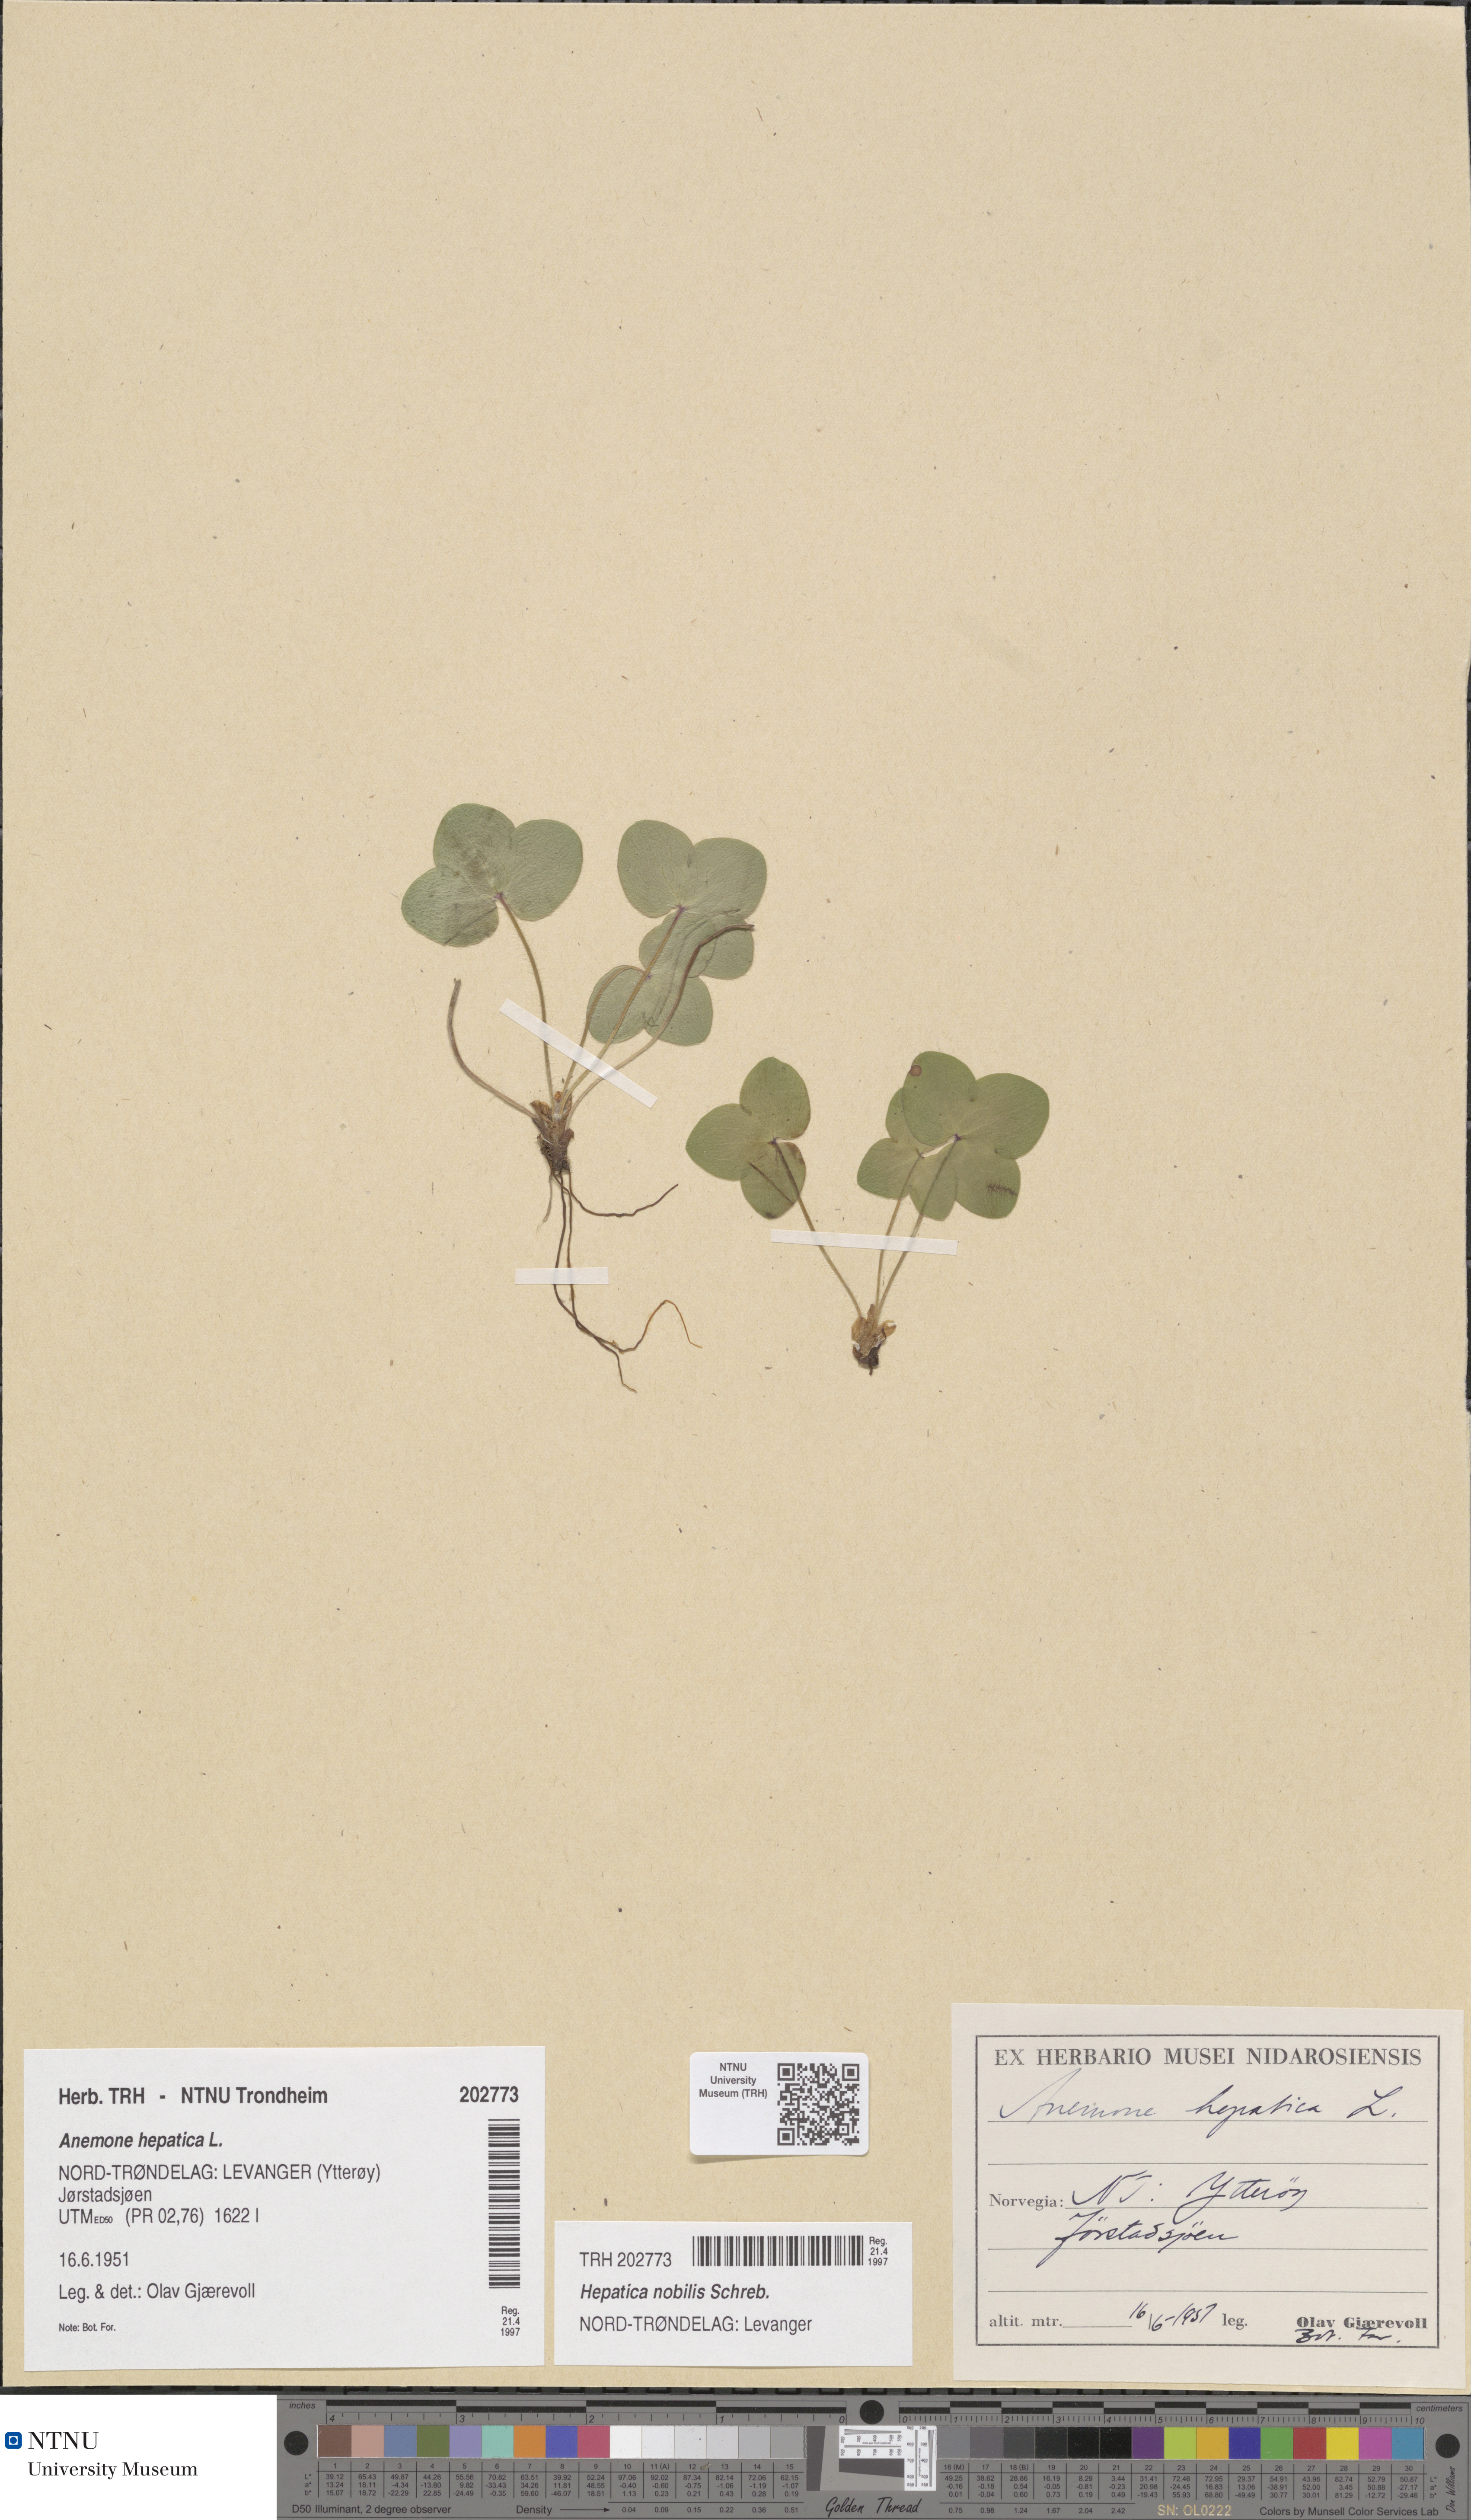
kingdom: Plantae
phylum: Tracheophyta
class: Magnoliopsida
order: Ranunculales
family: Ranunculaceae
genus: Hepatica
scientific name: Hepatica nobilis
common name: Liverleaf
